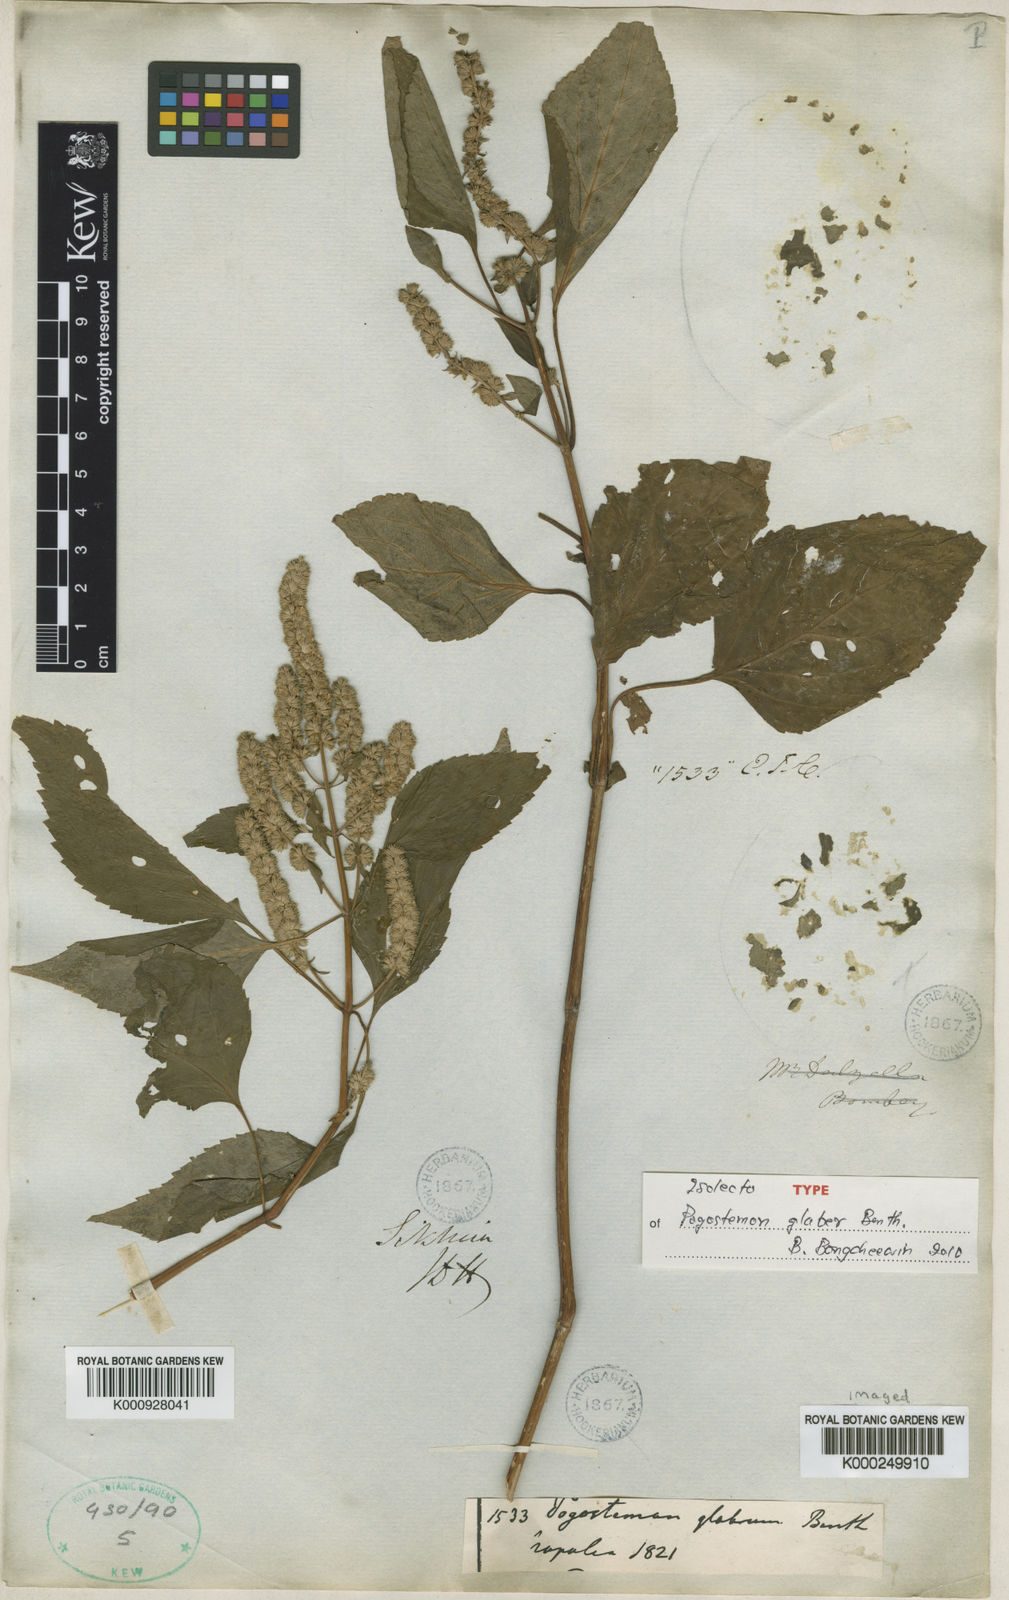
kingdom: Plantae
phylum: Tracheophyta
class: Magnoliopsida
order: Lamiales
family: Lamiaceae
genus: Pogostemon
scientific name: Pogostemon glaber
